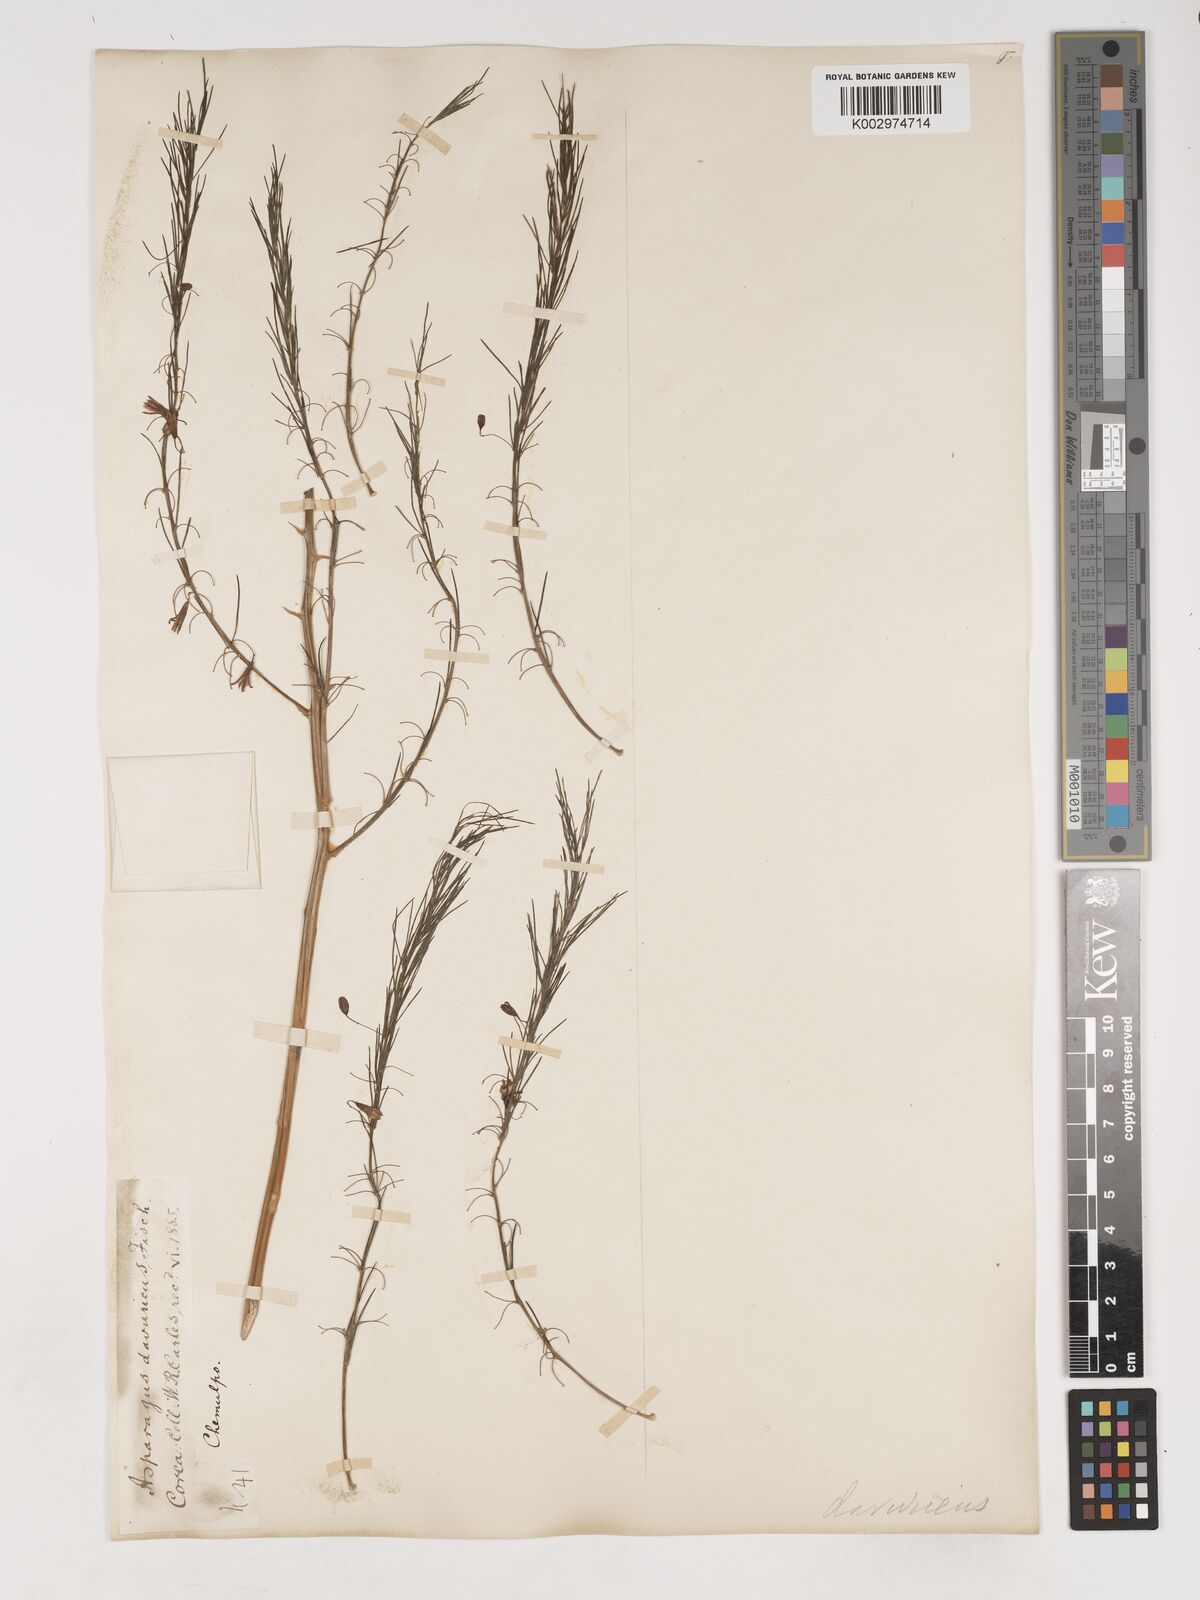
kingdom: Plantae
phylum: Tracheophyta
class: Liliopsida
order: Asparagales
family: Asparagaceae
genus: Asparagus
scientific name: Asparagus oligoclonos
